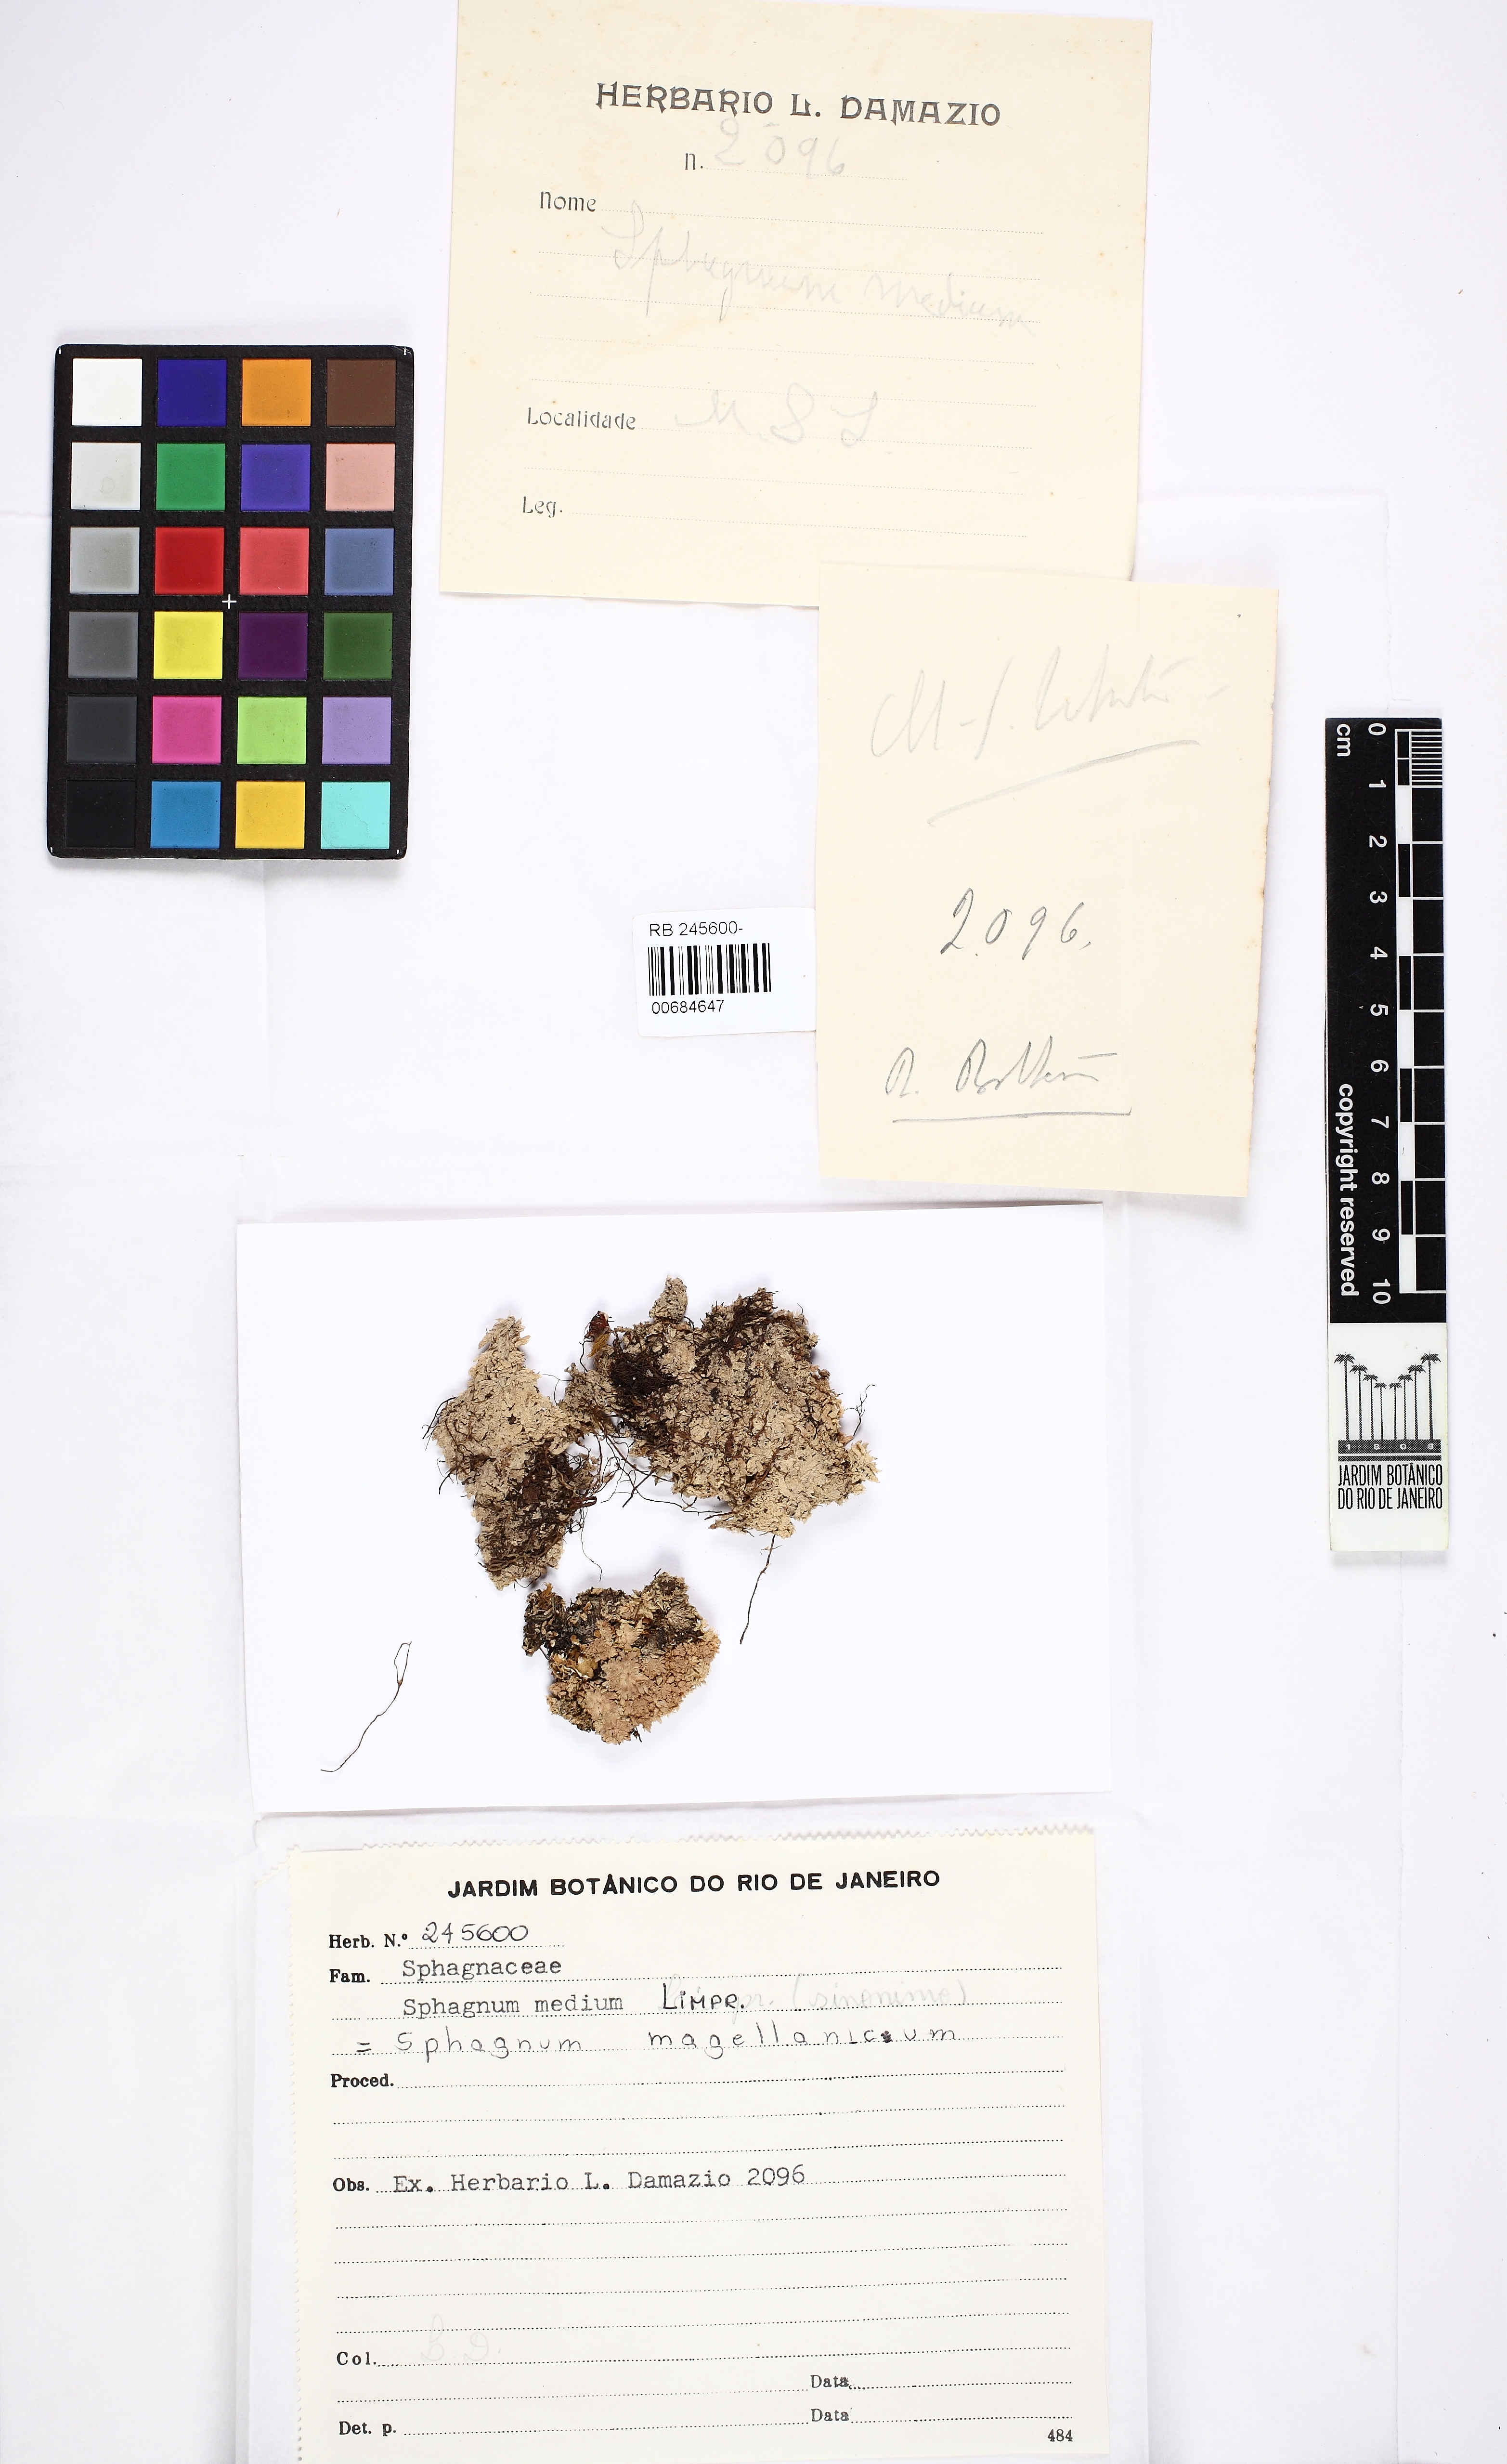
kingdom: Plantae
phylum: Bryophyta
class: Sphagnopsida
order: Sphagnales
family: Sphagnaceae
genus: Sphagnum
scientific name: Sphagnum magellanicum
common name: Magellan's peat moss
